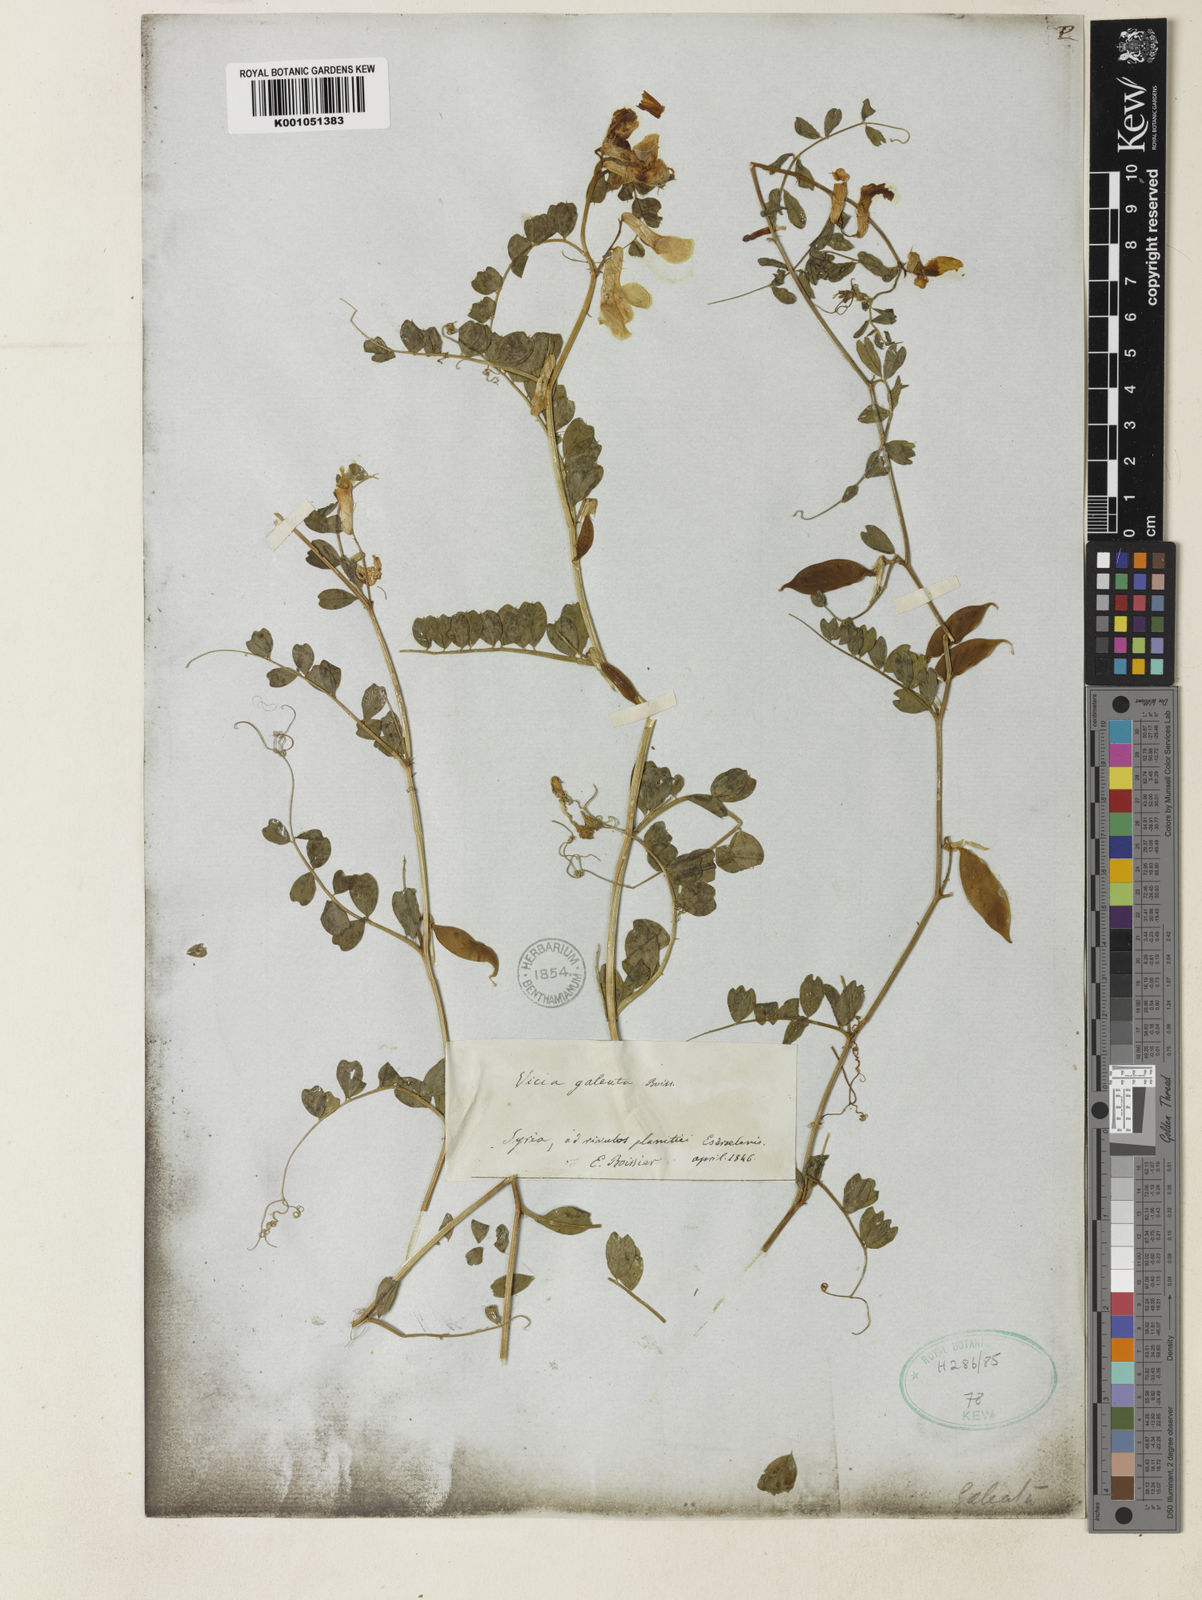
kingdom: Plantae
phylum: Tracheophyta
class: Magnoliopsida
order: Fabales
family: Fabaceae
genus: Vicia
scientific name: Vicia galeata
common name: Helmeted vetch
